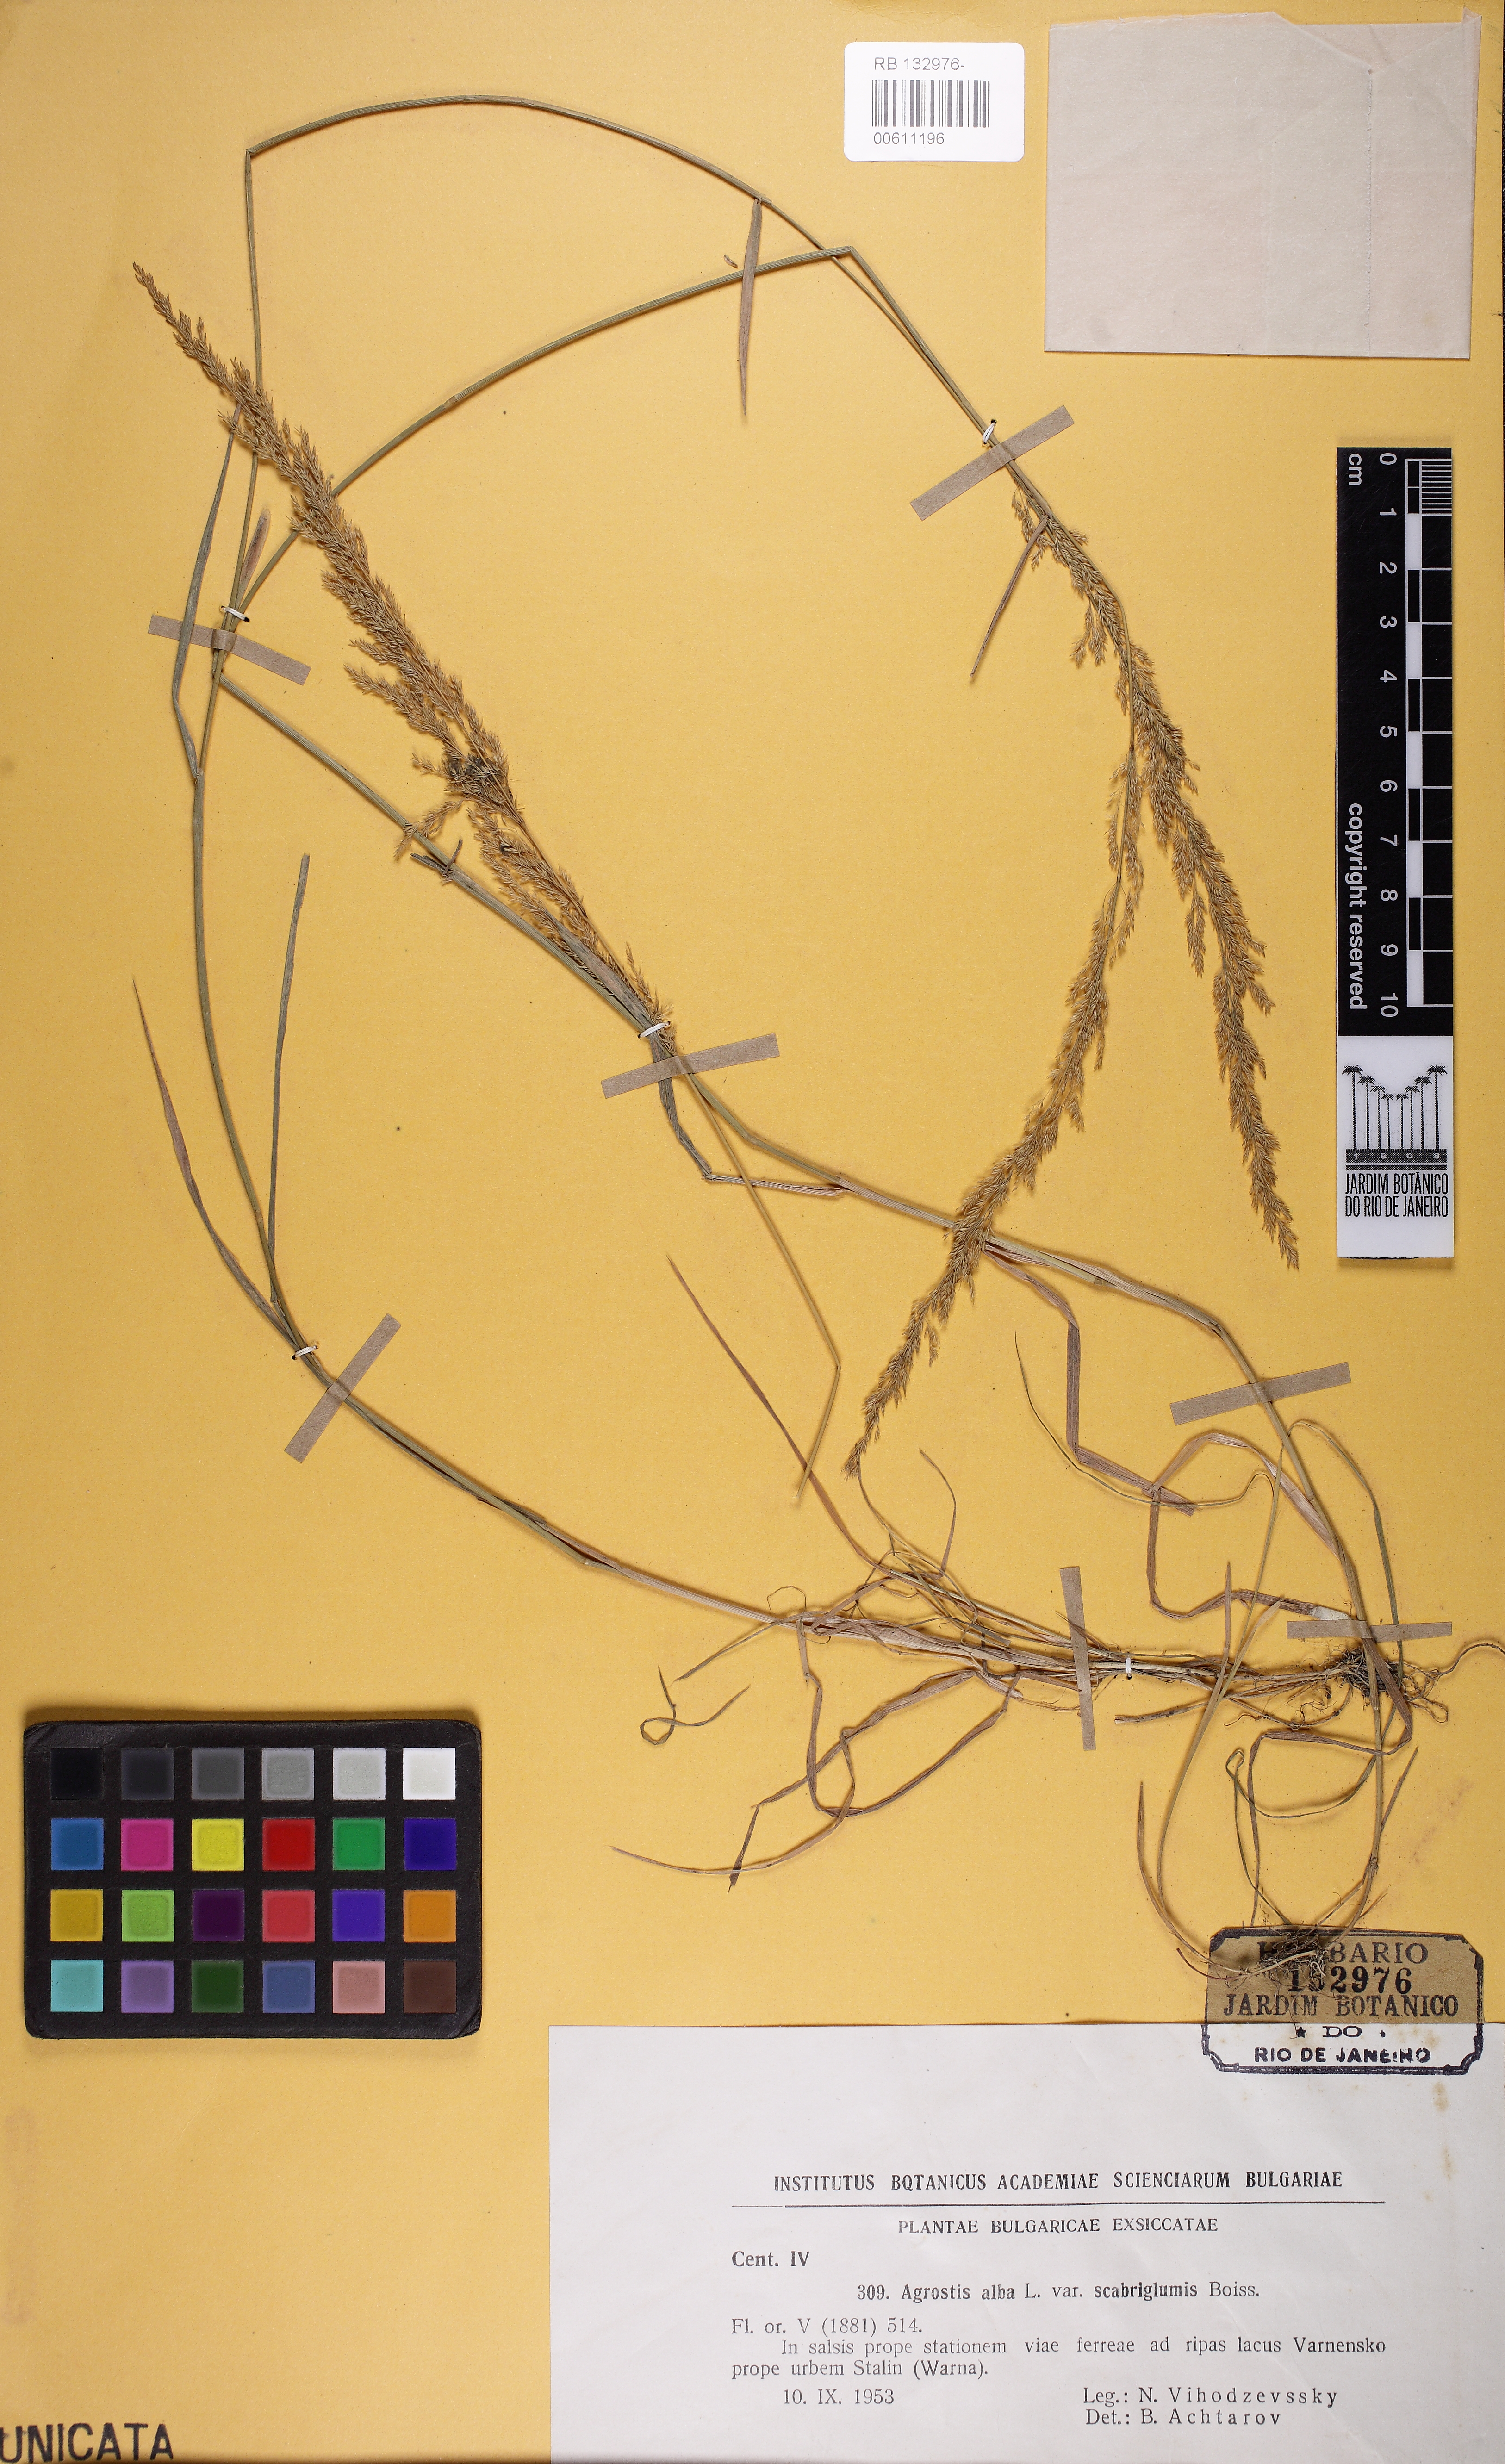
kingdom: Plantae
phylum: Tracheophyta
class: Liliopsida
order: Poales
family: Poaceae
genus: Agrostis
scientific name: Agrostis stolonifera
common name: Creeping bentgrass
